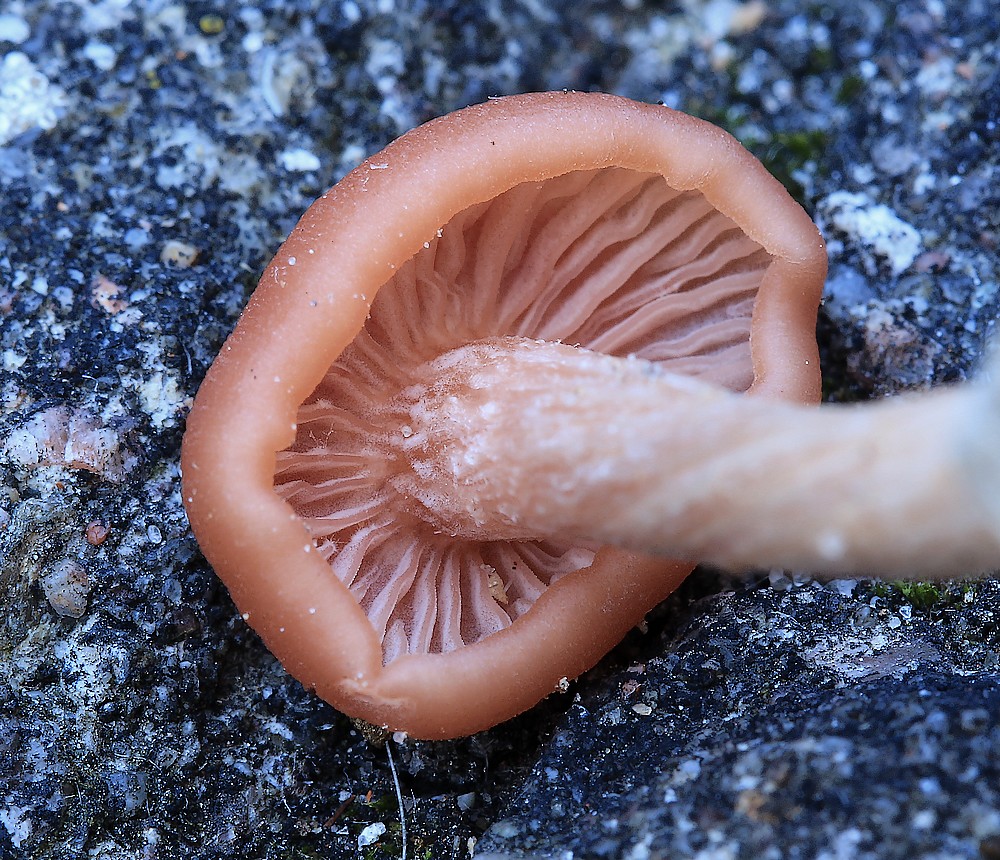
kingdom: Fungi
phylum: Basidiomycota
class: Agaricomycetes
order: Agaricales
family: Hydnangiaceae
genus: Laccaria
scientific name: Laccaria laccata
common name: rød ametysthat
